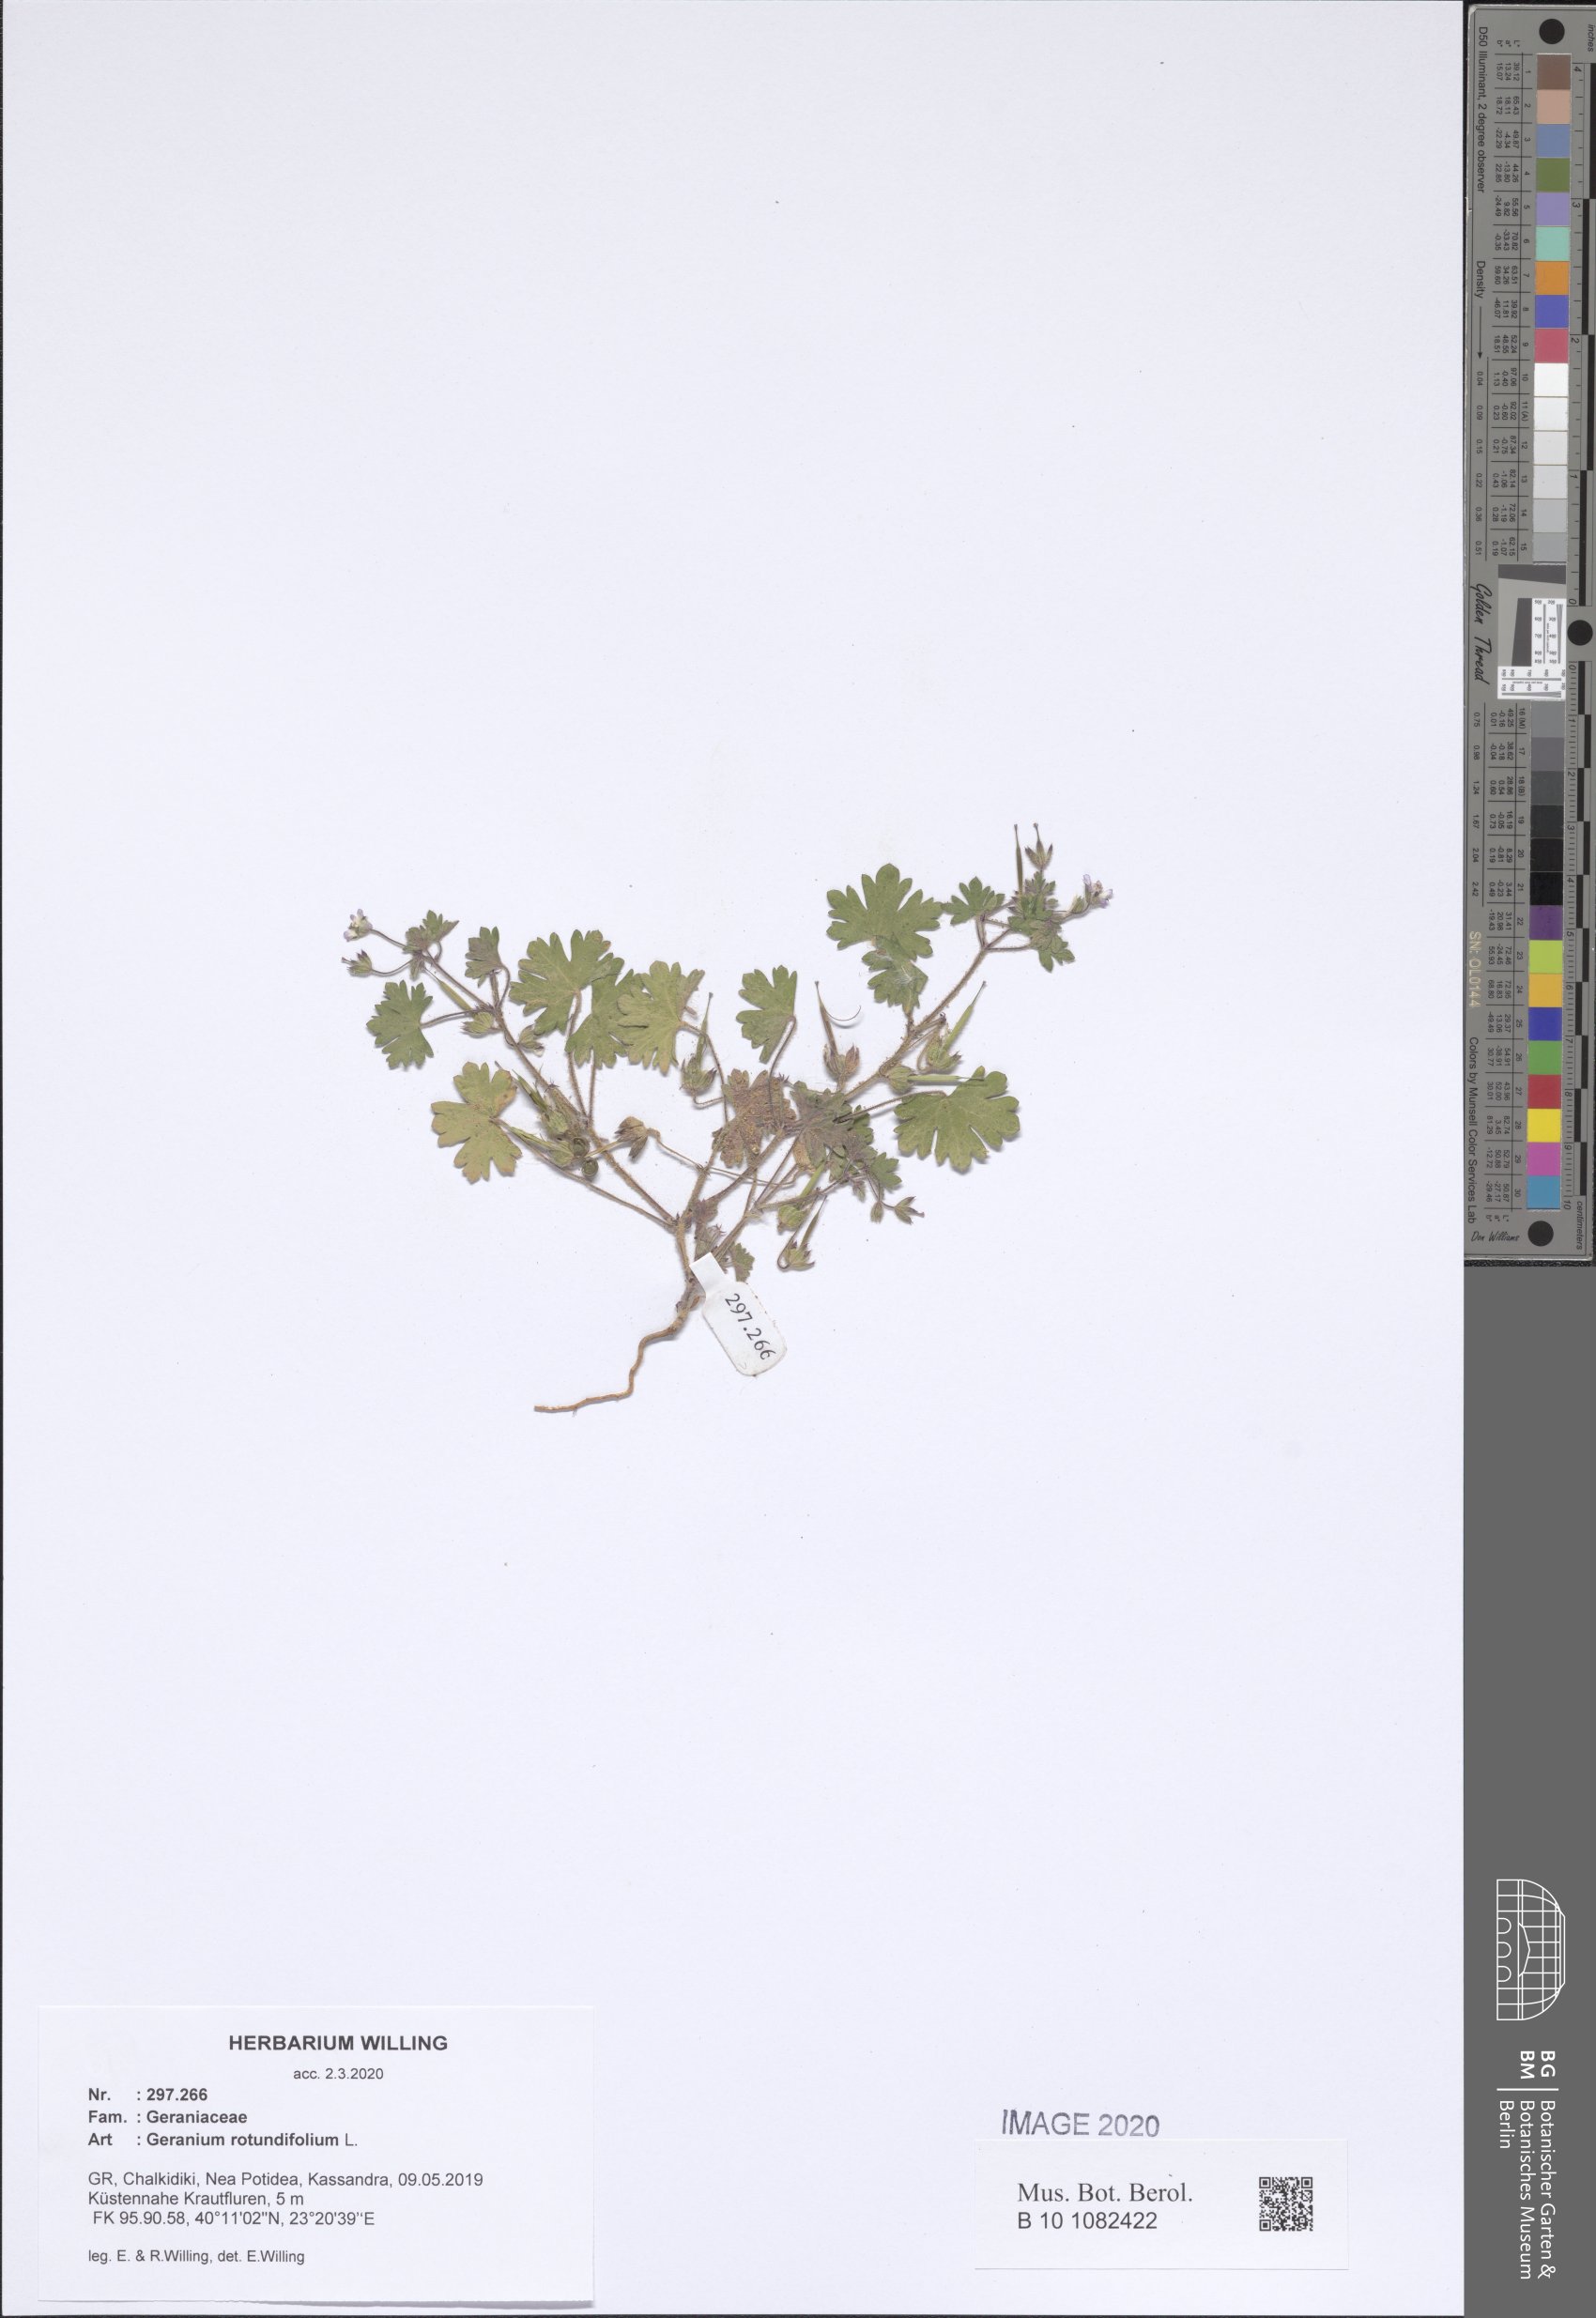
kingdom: Plantae
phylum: Tracheophyta
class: Magnoliopsida
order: Geraniales
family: Geraniaceae
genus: Geranium
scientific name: Geranium rotundifolium
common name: Round-leaved crane's-bill
